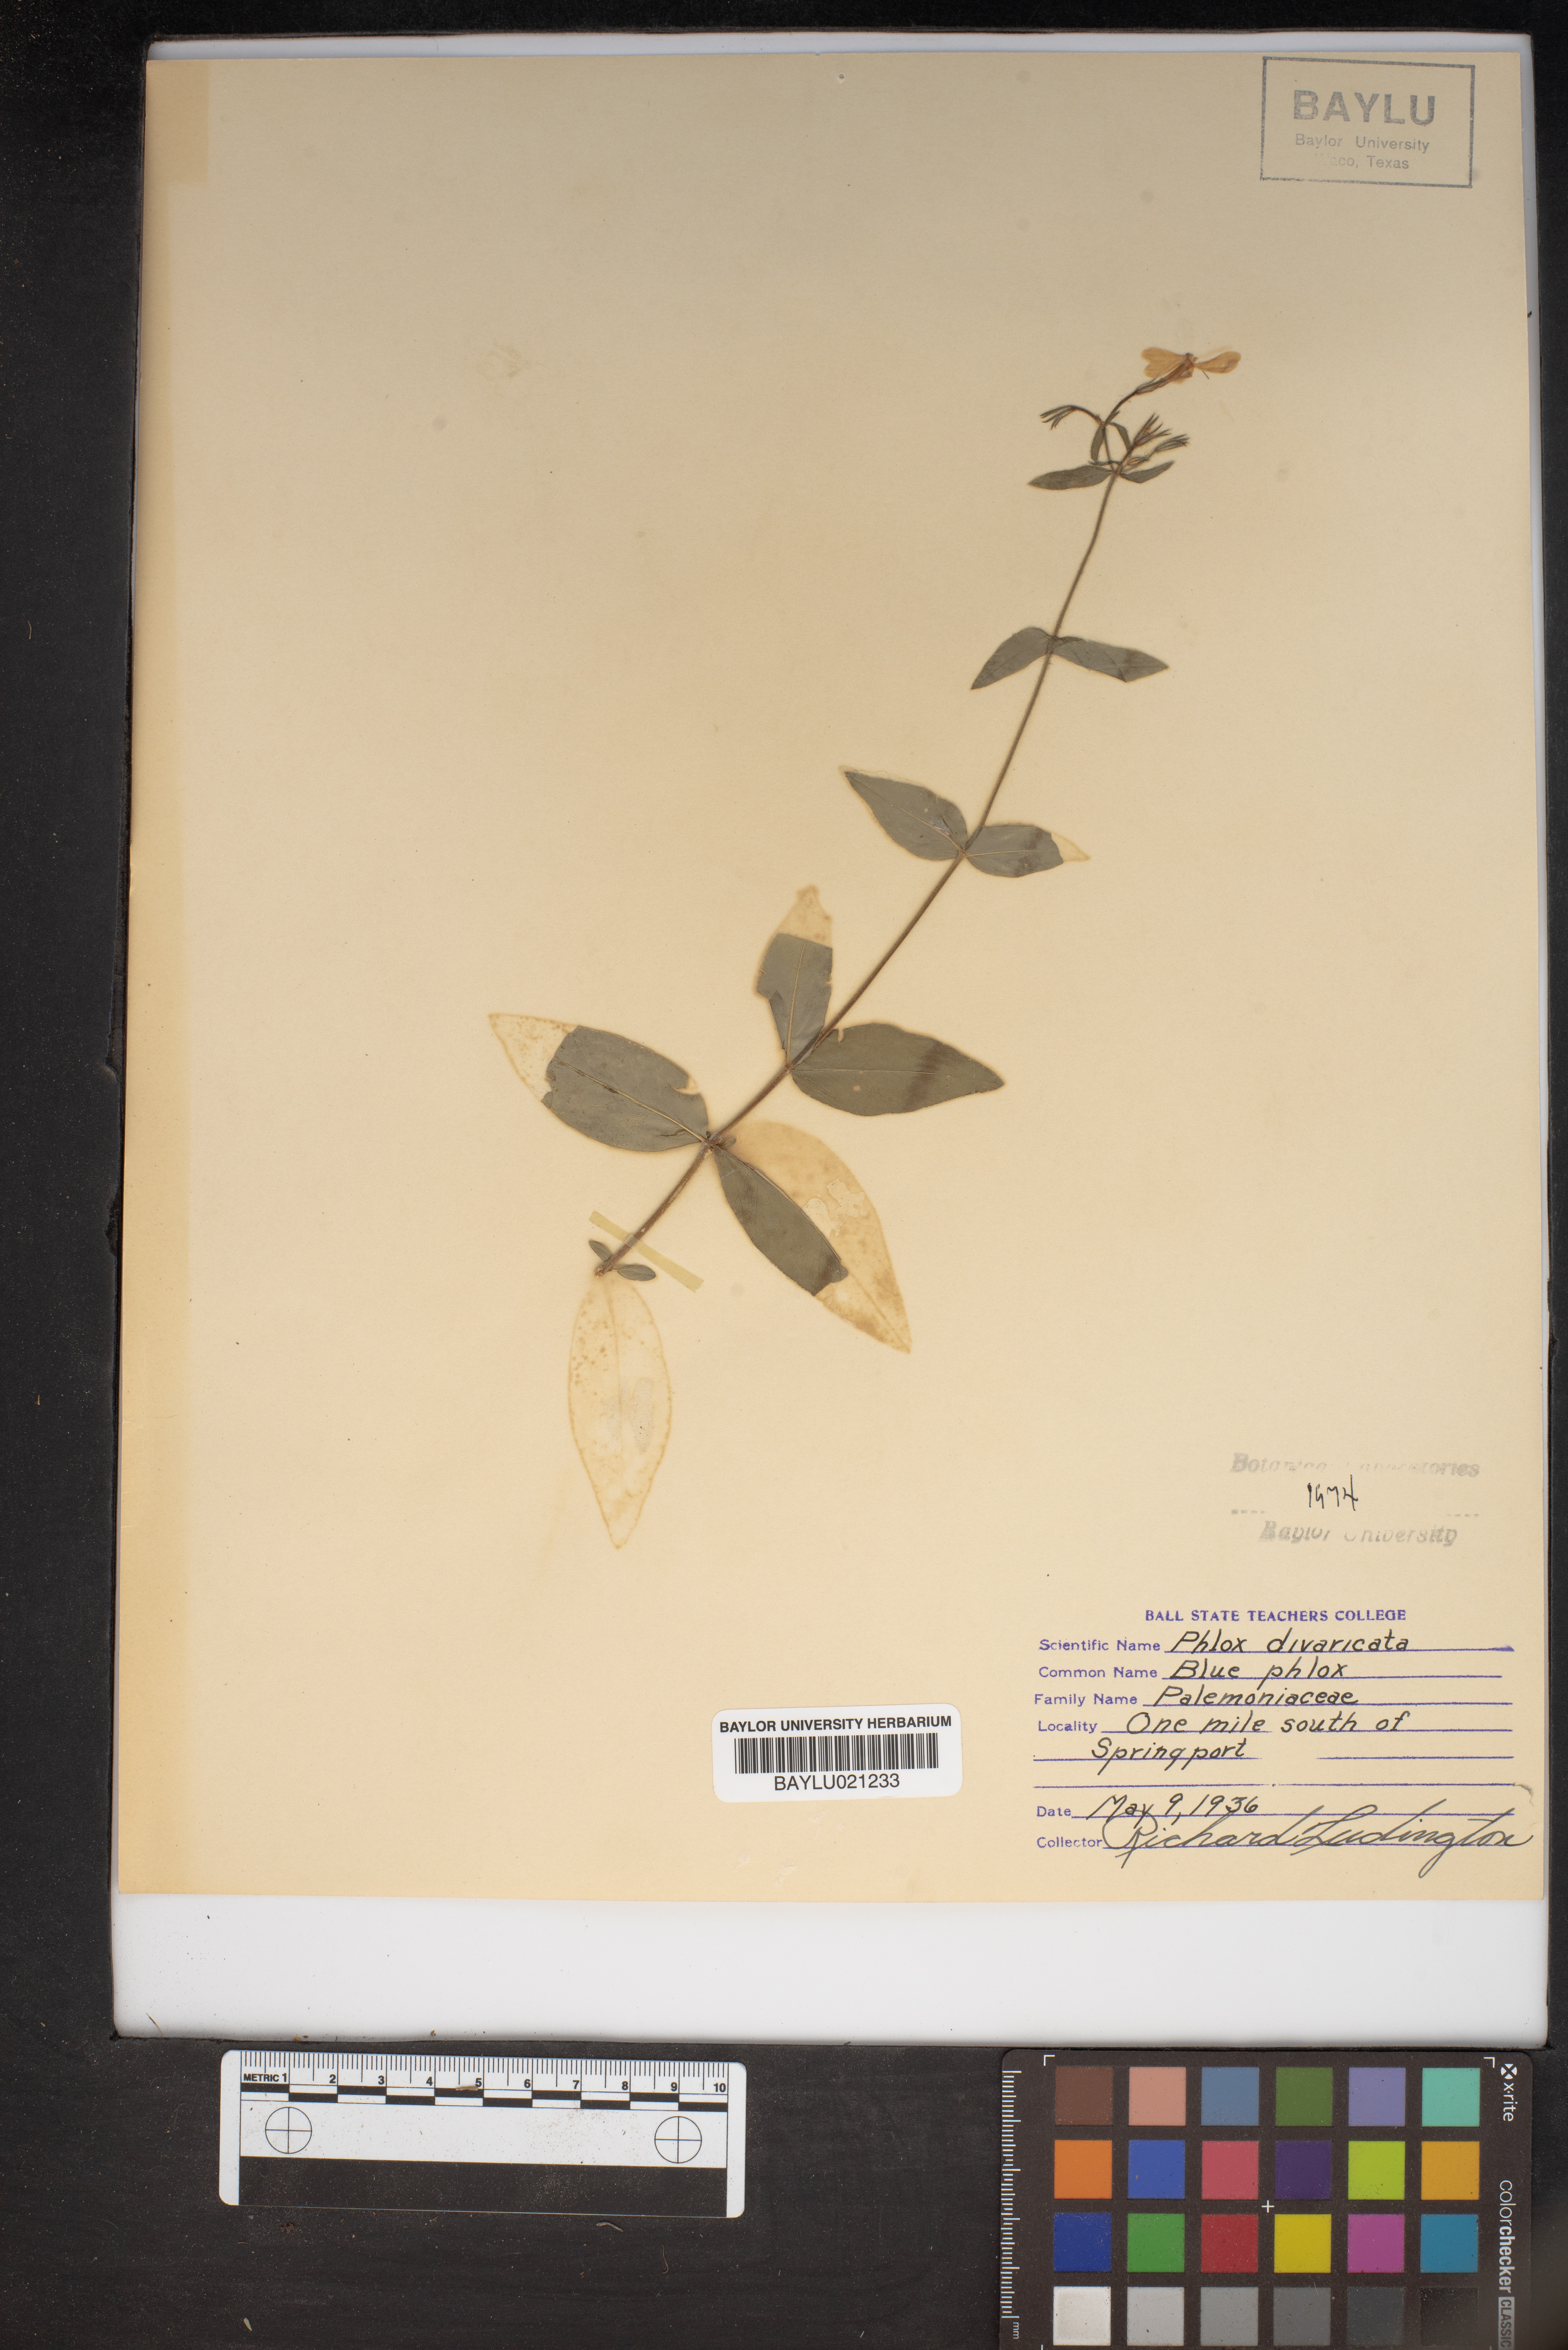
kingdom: Plantae
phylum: Tracheophyta
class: Magnoliopsida
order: Ericales
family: Polemoniaceae
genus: Phlox
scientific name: Phlox divaricata
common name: Blue phlox
